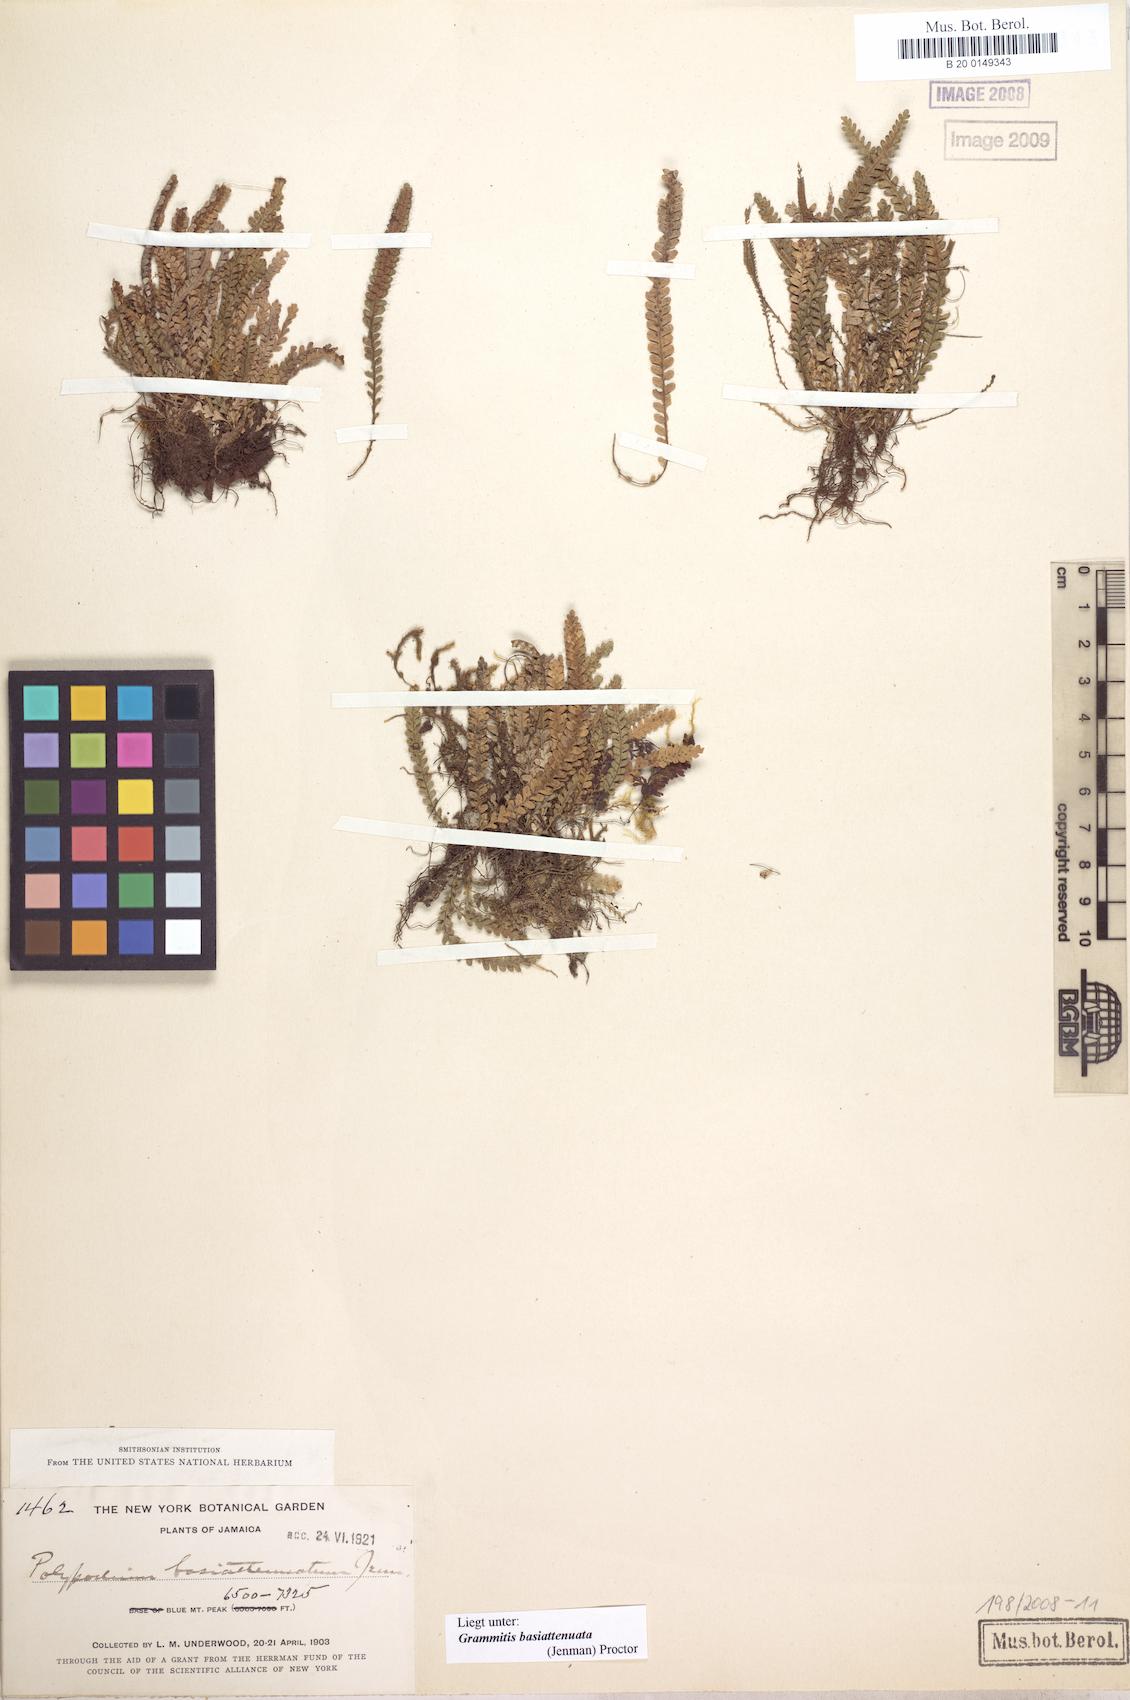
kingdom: Plantae
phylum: Tracheophyta
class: Polypodiopsida
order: Polypodiales
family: Polypodiaceae
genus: Moranopteris
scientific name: Moranopteris basiattenuata
